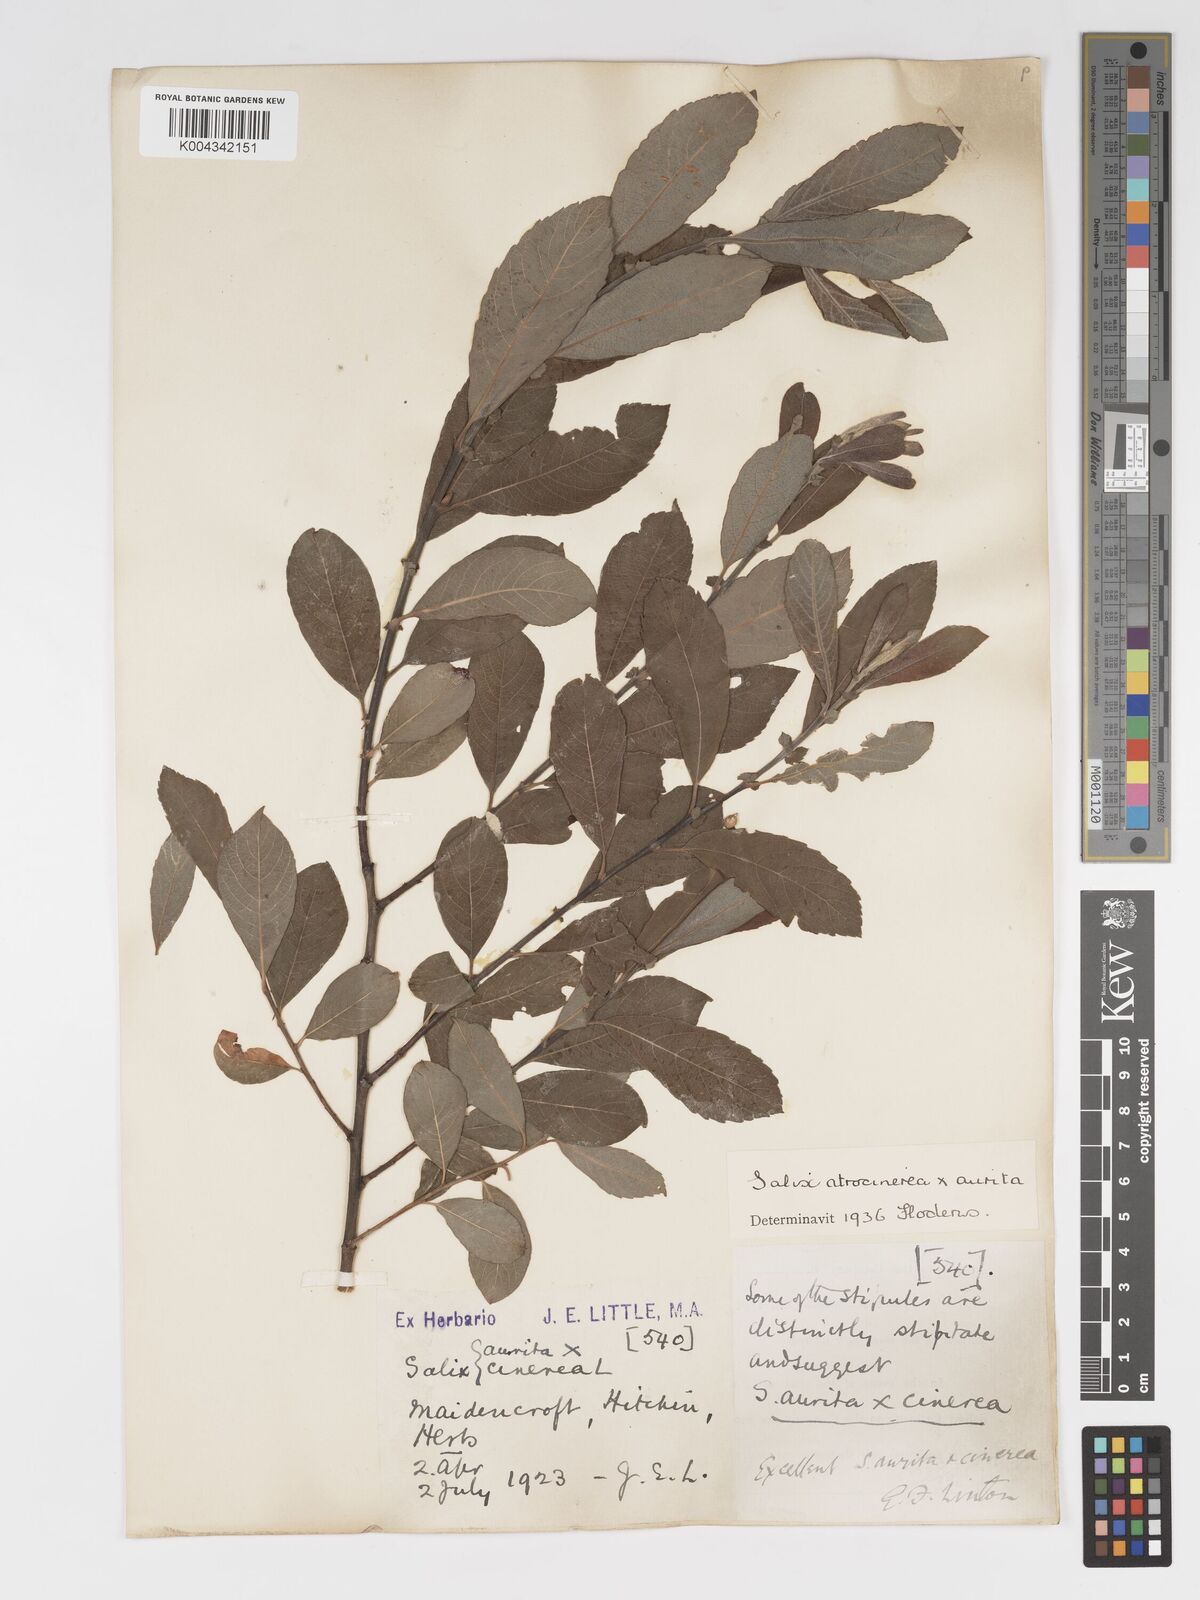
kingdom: Plantae
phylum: Tracheophyta
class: Magnoliopsida
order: Malpighiales
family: Salicaceae
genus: Salix
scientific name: Salix
